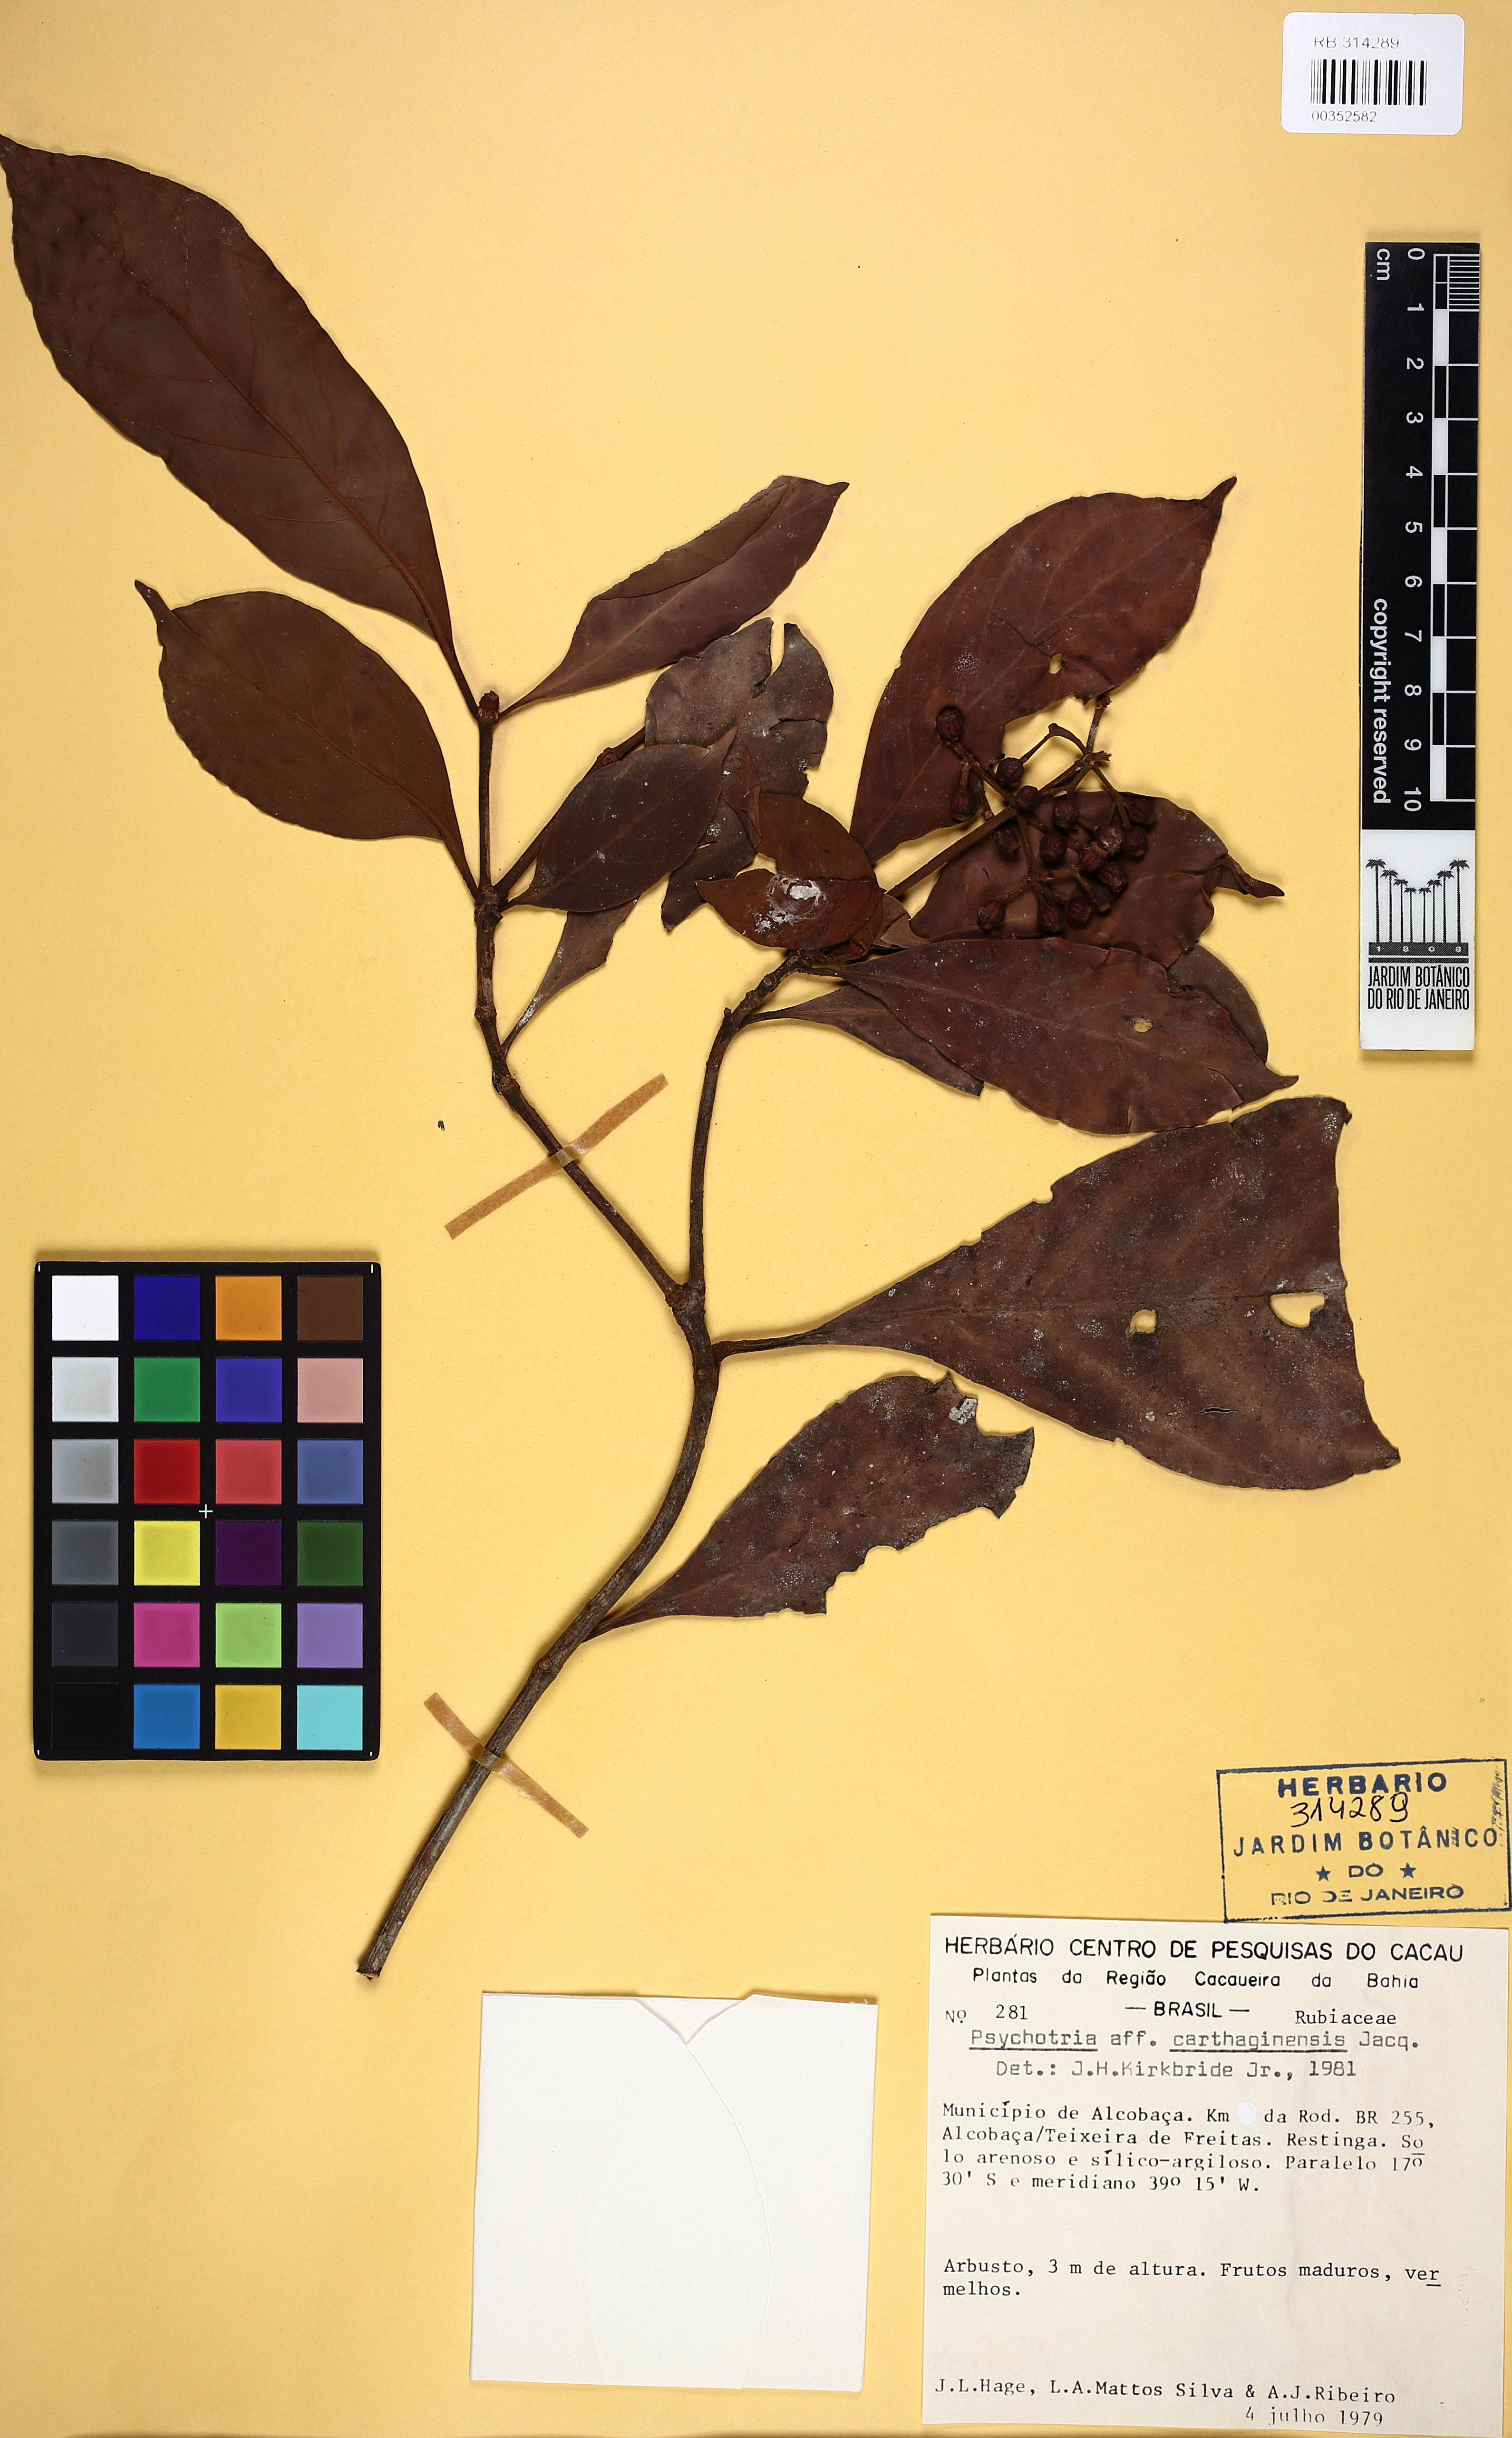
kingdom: Plantae
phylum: Tracheophyta
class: Magnoliopsida
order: Gentianales
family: Rubiaceae
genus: Psychotria
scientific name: Psychotria carthagenensis
